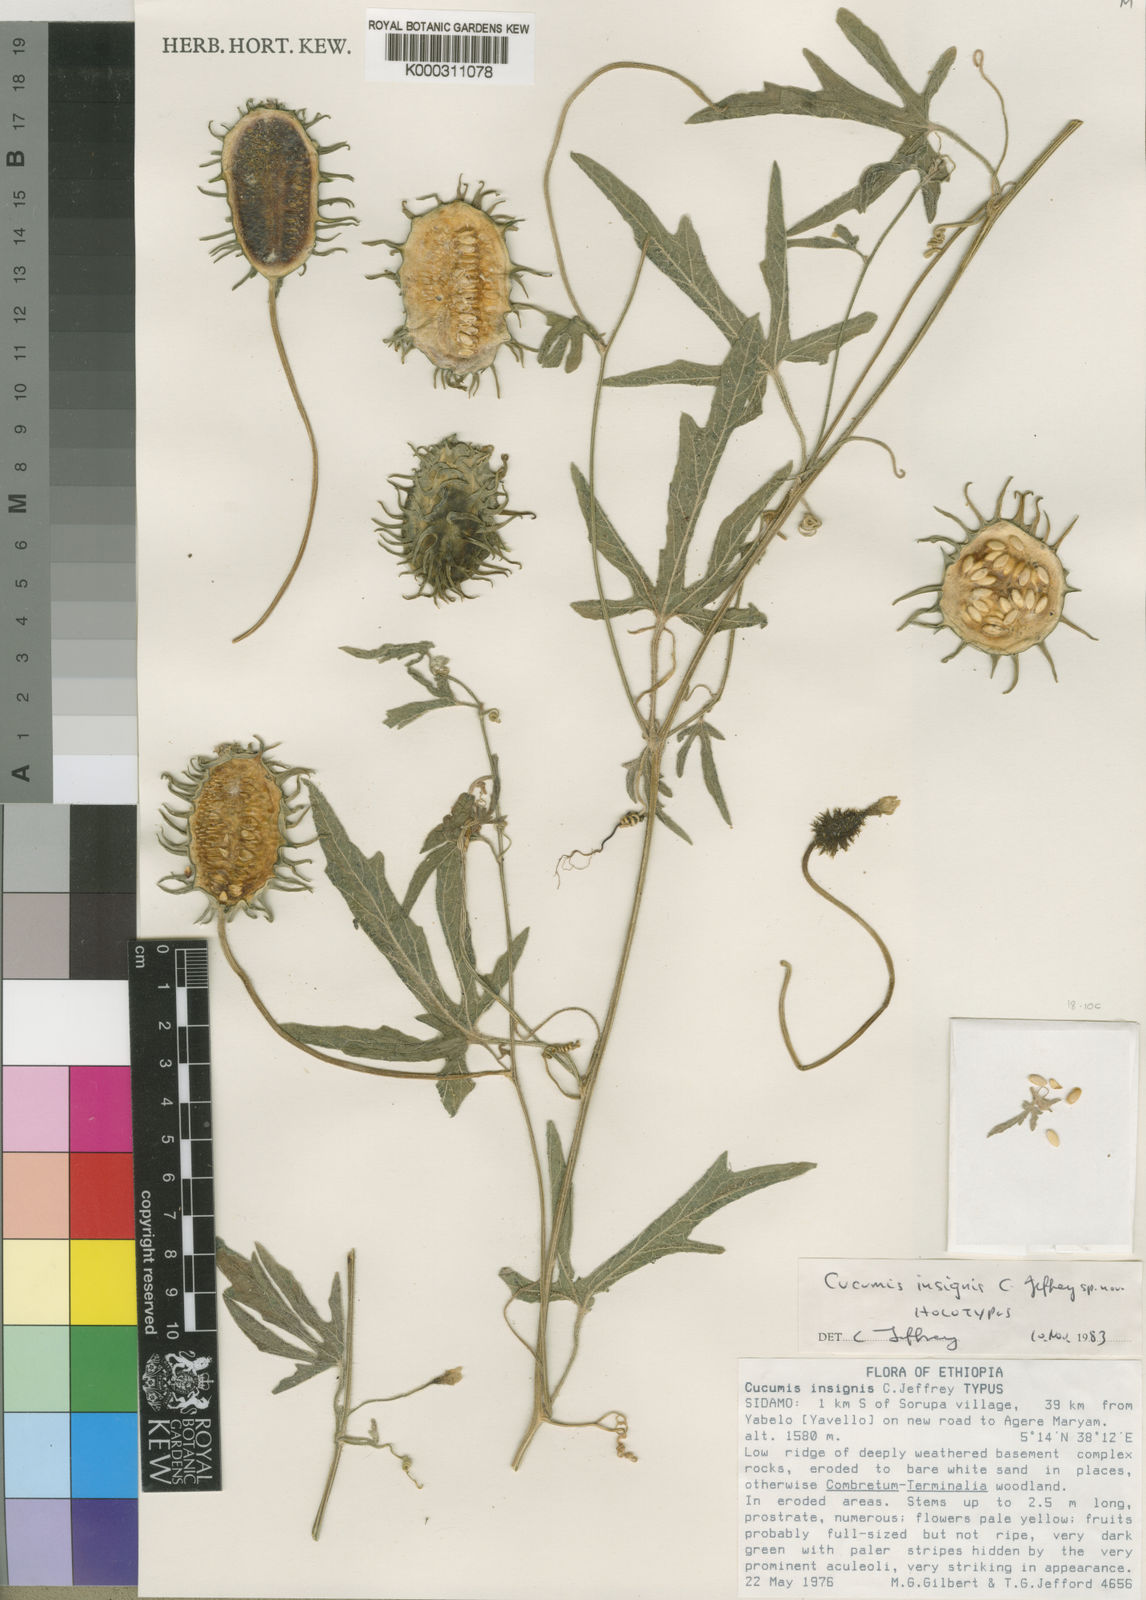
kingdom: Plantae
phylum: Tracheophyta
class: Magnoliopsida
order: Cucurbitales
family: Cucurbitaceae
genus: Cucumis
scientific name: Cucumis insignis
